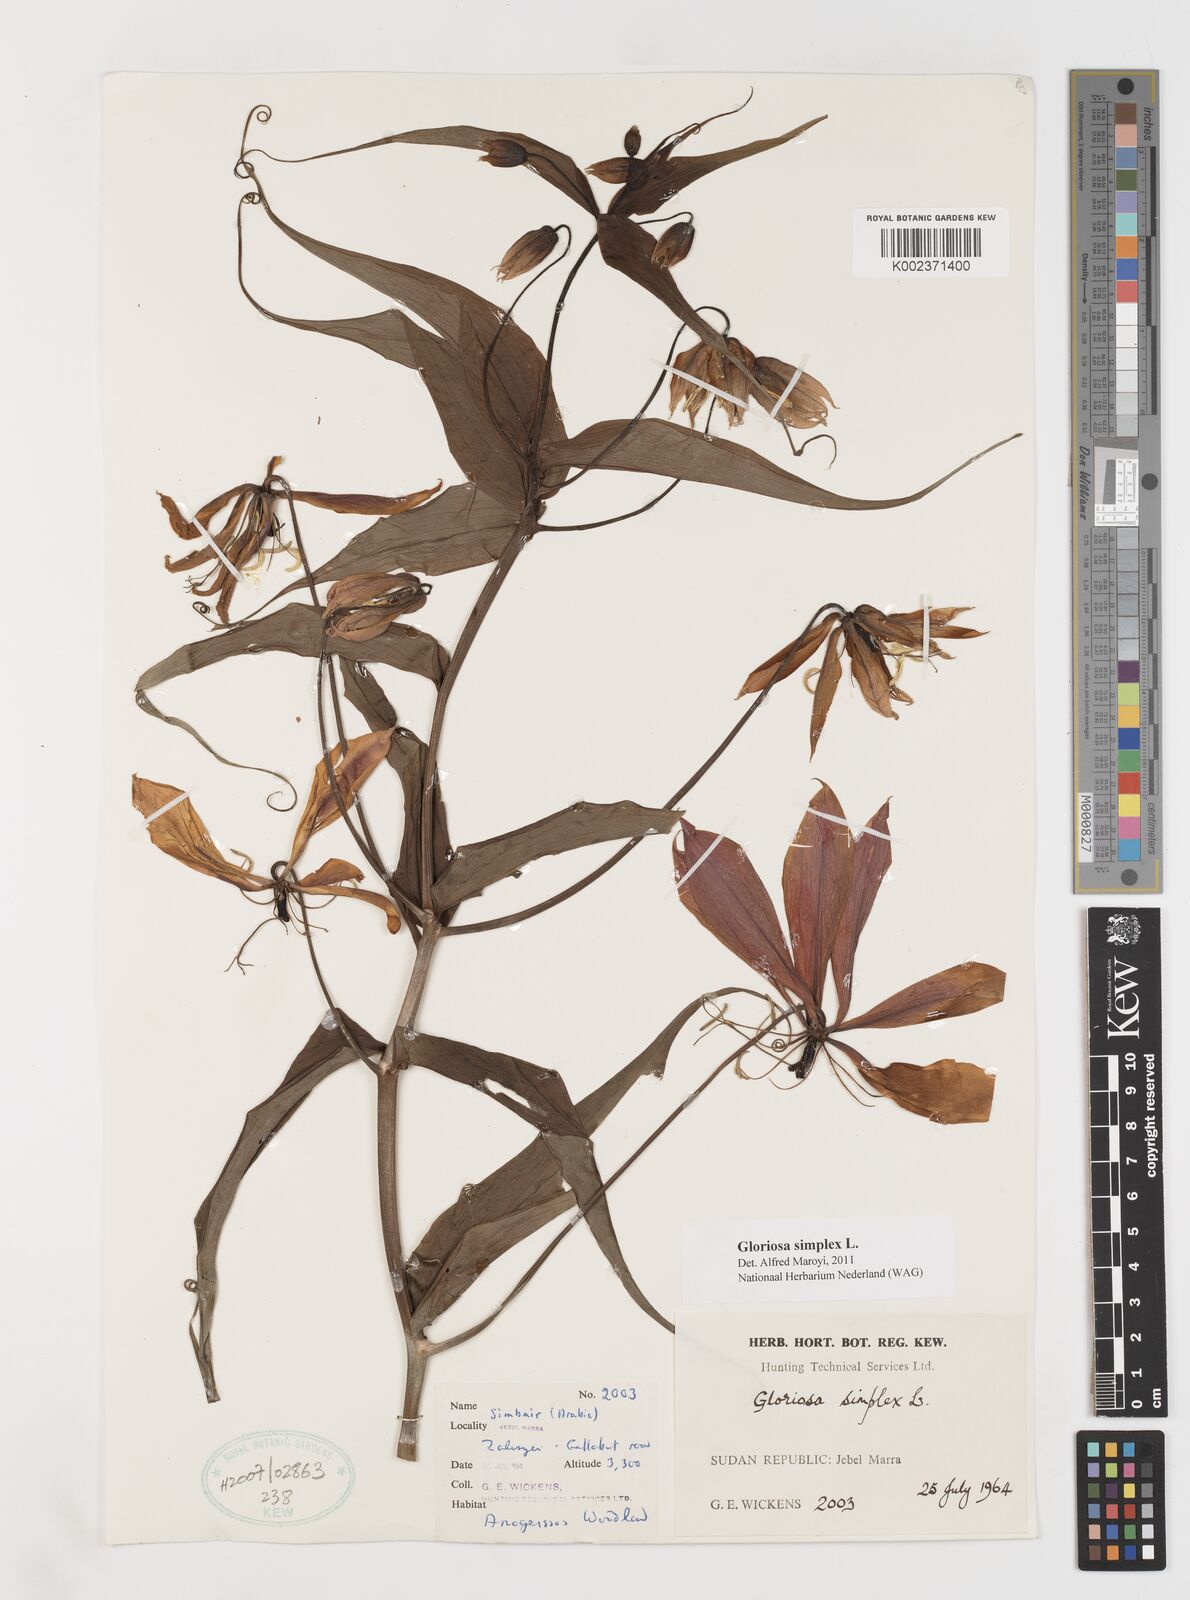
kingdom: Plantae
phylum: Tracheophyta
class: Liliopsida
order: Liliales
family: Colchicaceae
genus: Gloriosa
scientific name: Gloriosa simplex
